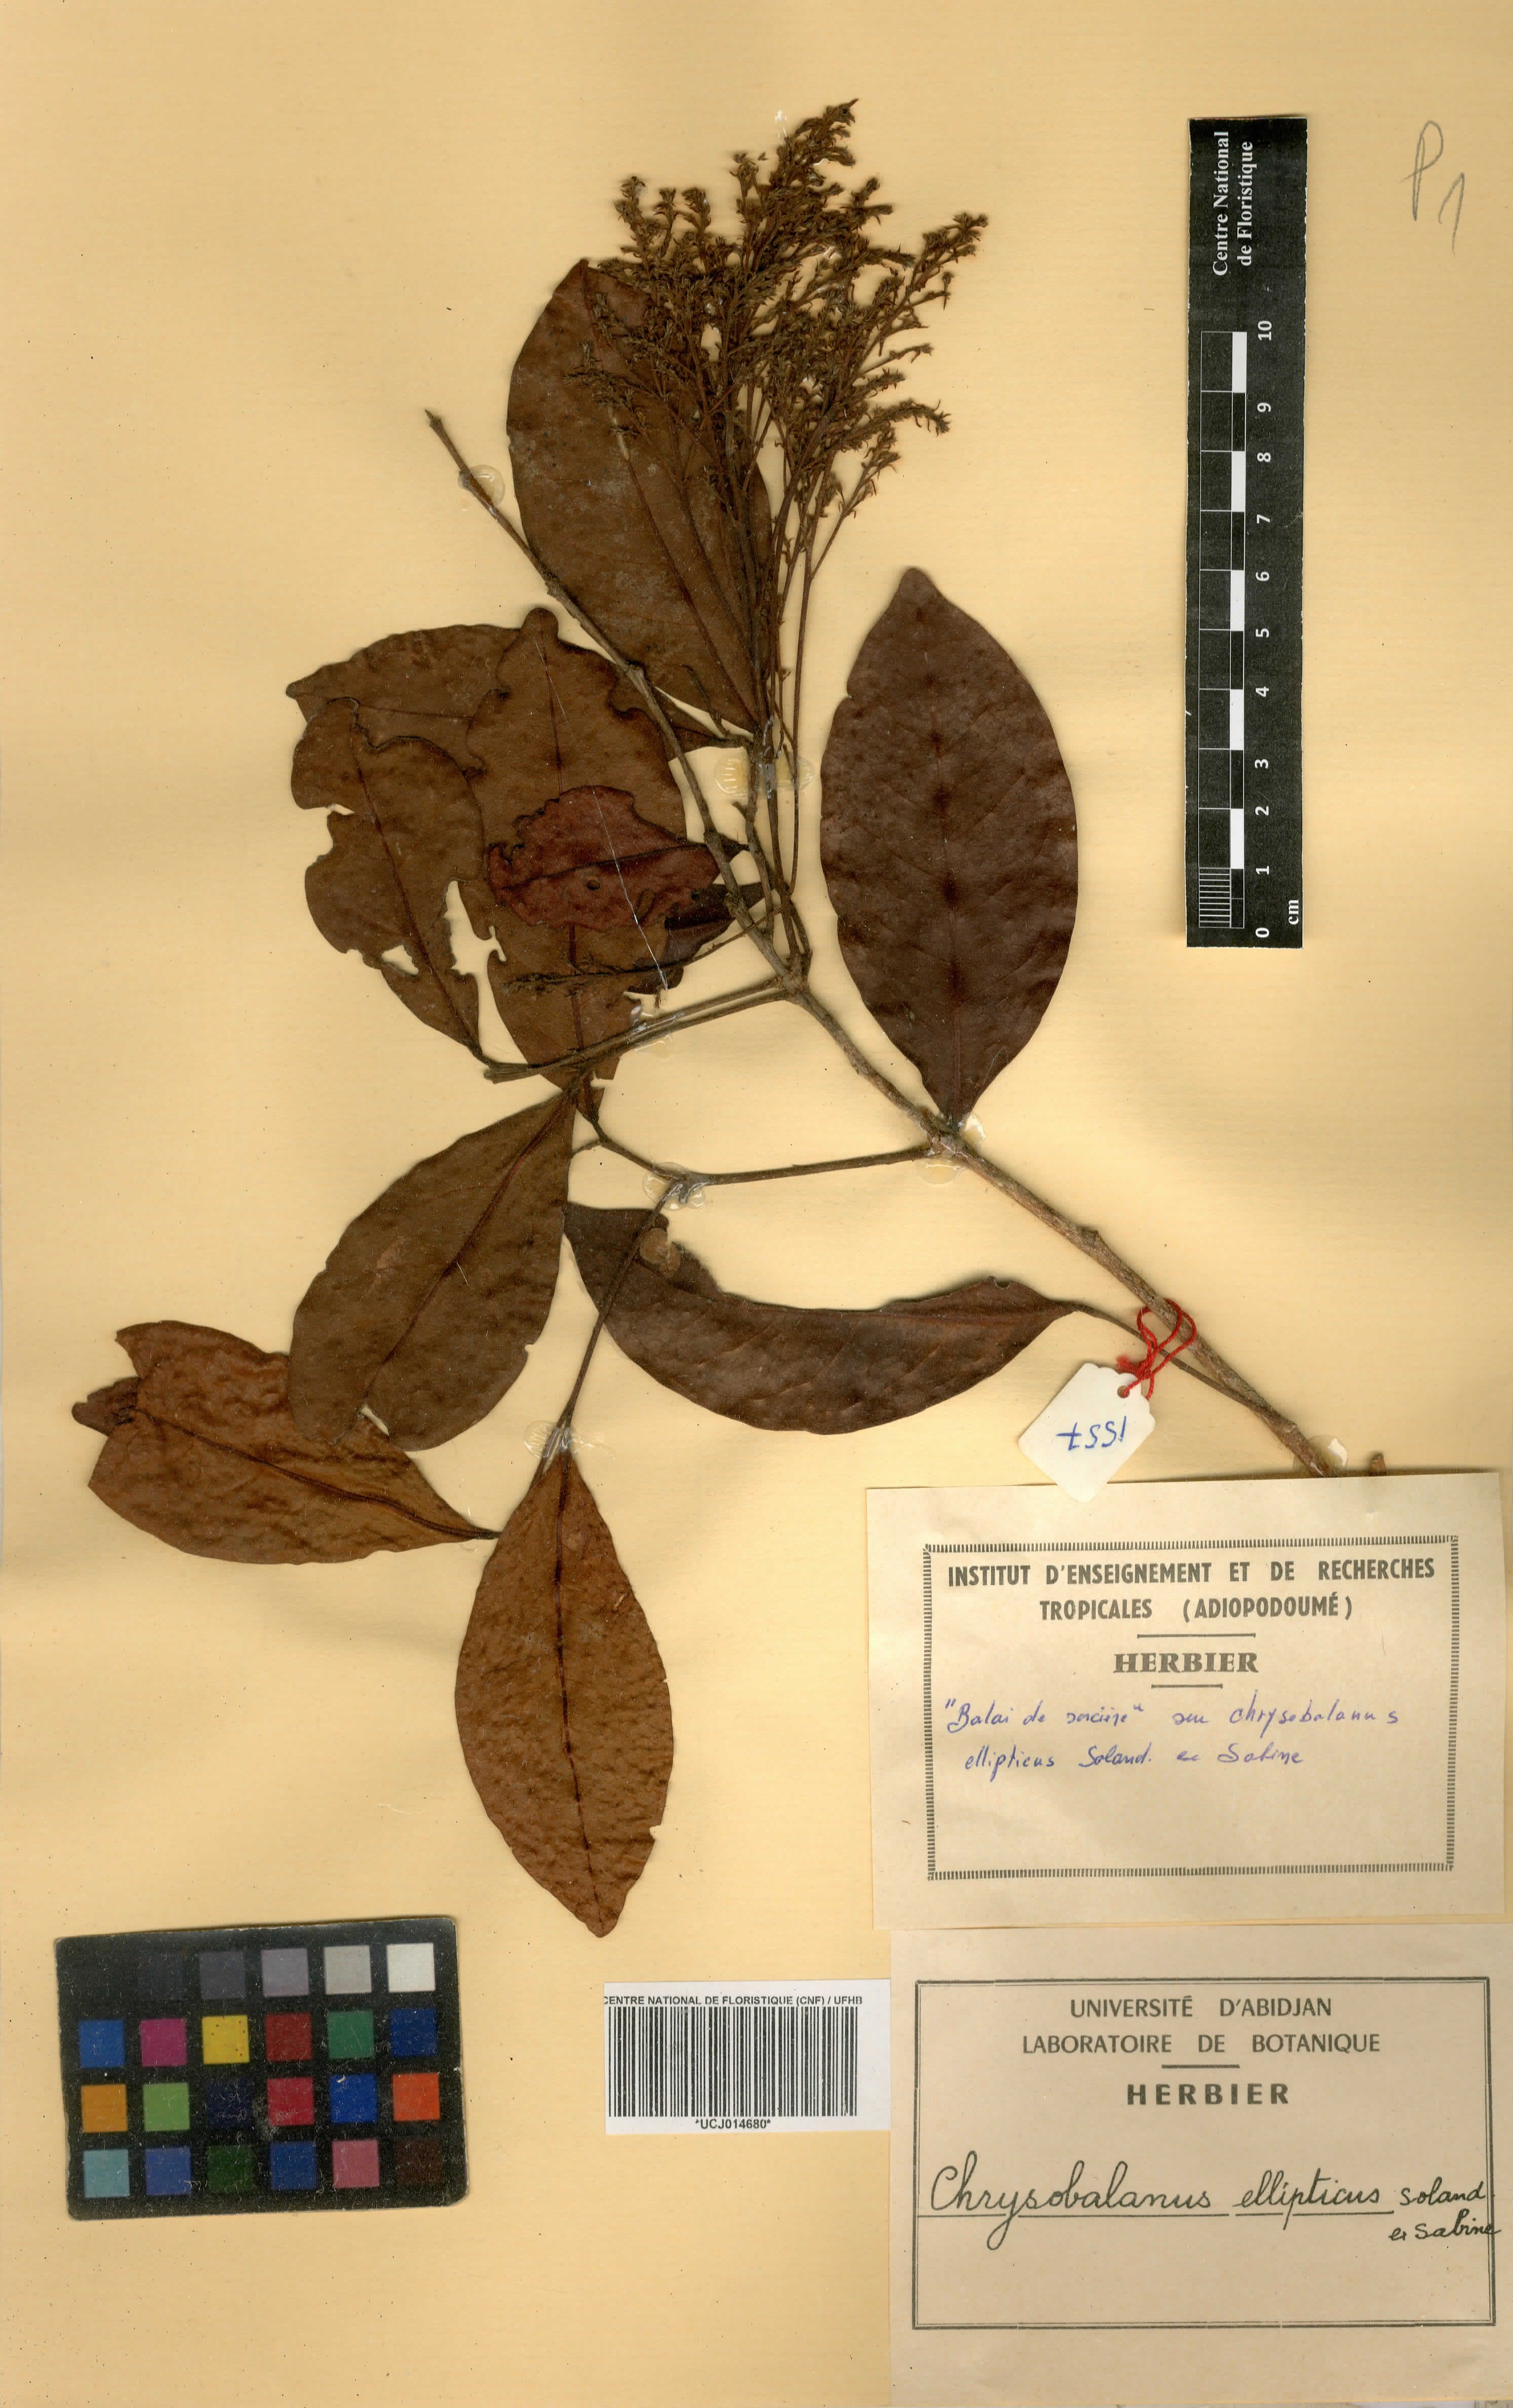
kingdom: Plantae
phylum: Tracheophyta
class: Magnoliopsida
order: Malpighiales
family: Chrysobalanaceae
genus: Chrysobalanus
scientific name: Chrysobalanus icaco
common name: Coco plum
